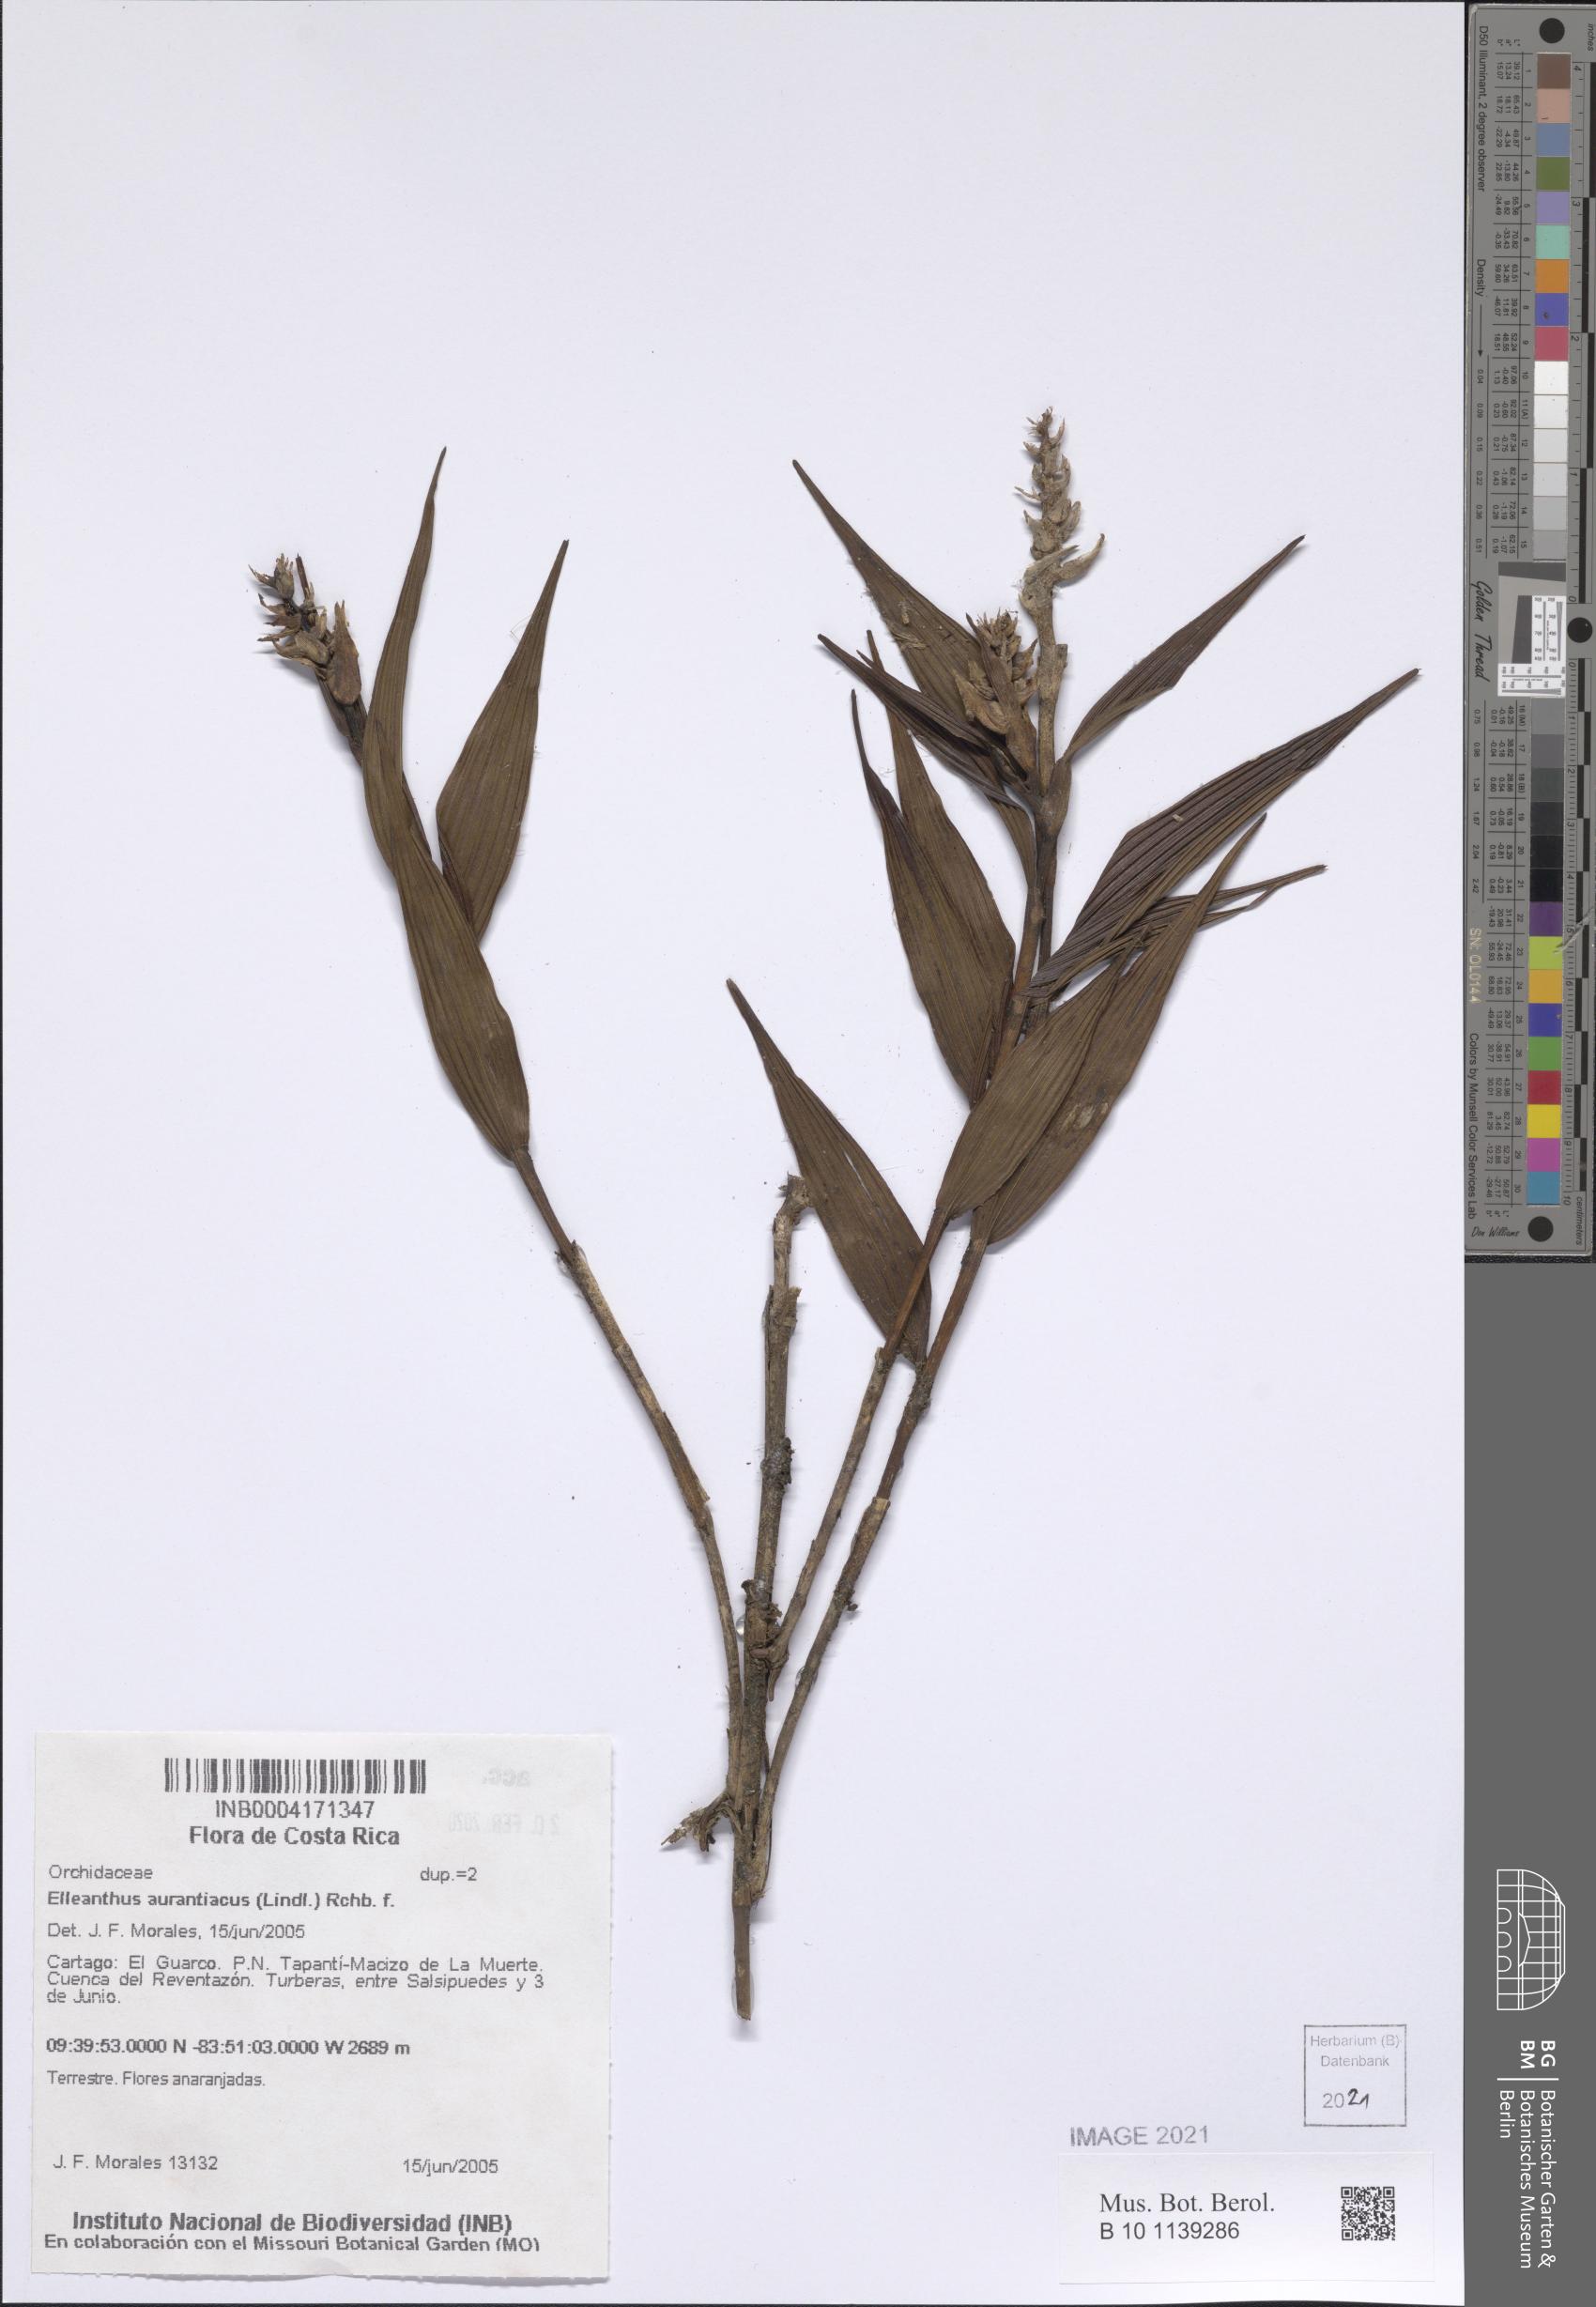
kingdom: Plantae
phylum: Tracheophyta
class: Liliopsida
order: Asparagales
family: Orchidaceae
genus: Elleanthus
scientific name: Elleanthus aurantiacus
